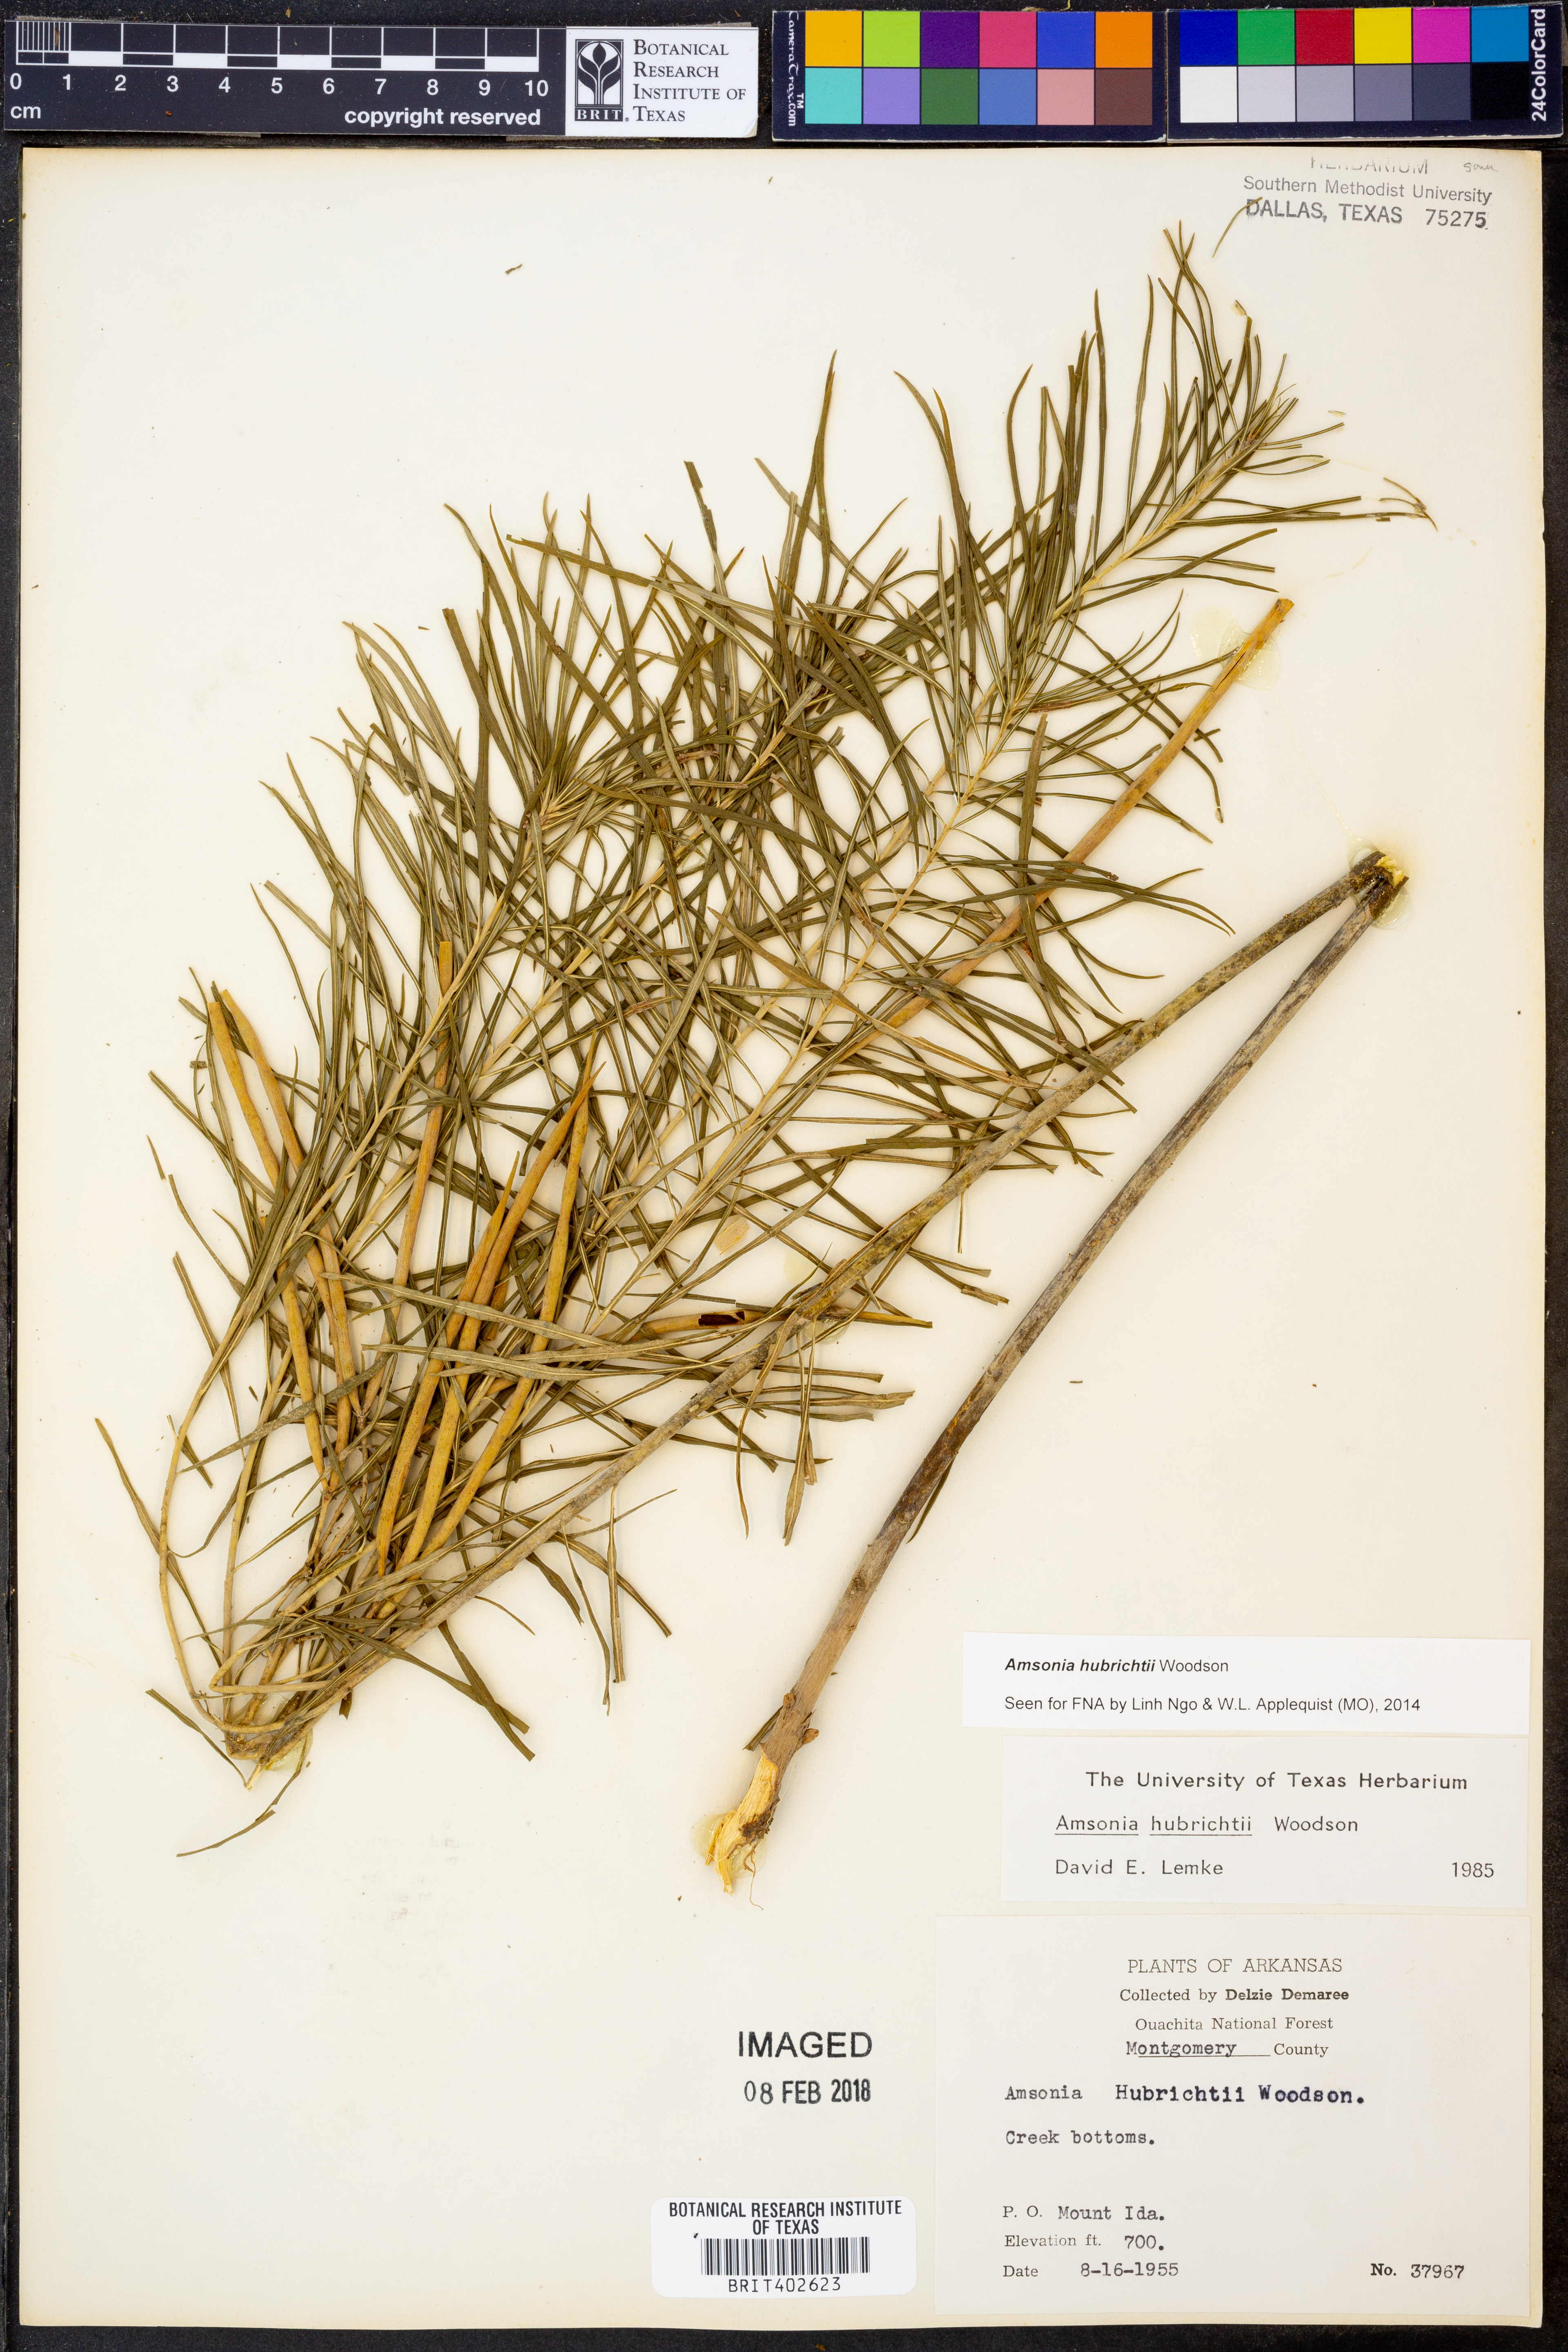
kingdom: Plantae
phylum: Tracheophyta
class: Magnoliopsida
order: Gentianales
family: Apocynaceae
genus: Amsonia
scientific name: Amsonia hubrichtii
